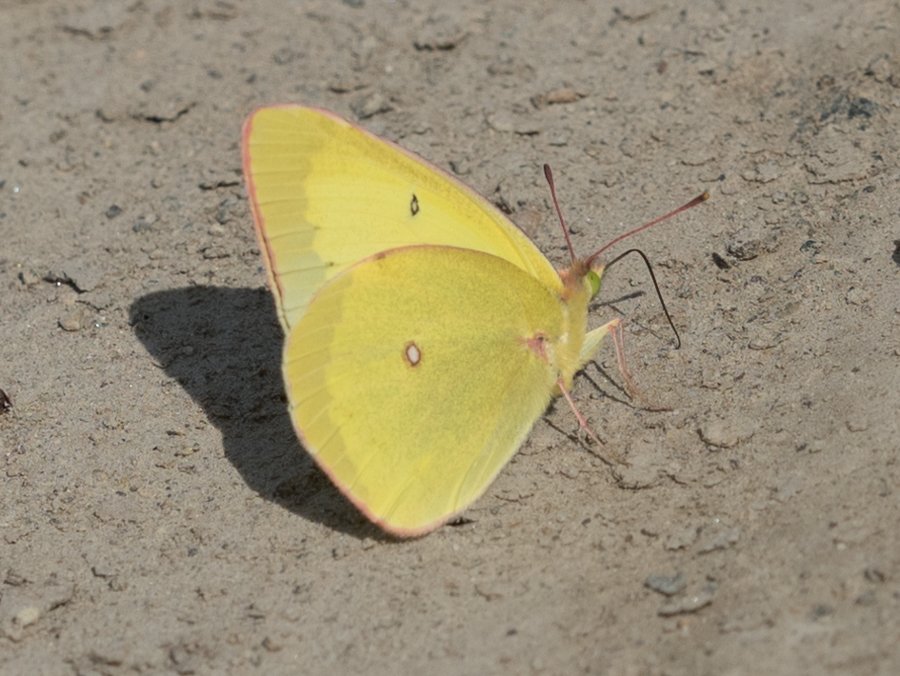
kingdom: Animalia
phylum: Arthropoda
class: Insecta
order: Lepidoptera
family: Pieridae
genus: Colias
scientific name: Colias interior
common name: Pink-edged Sulphur
